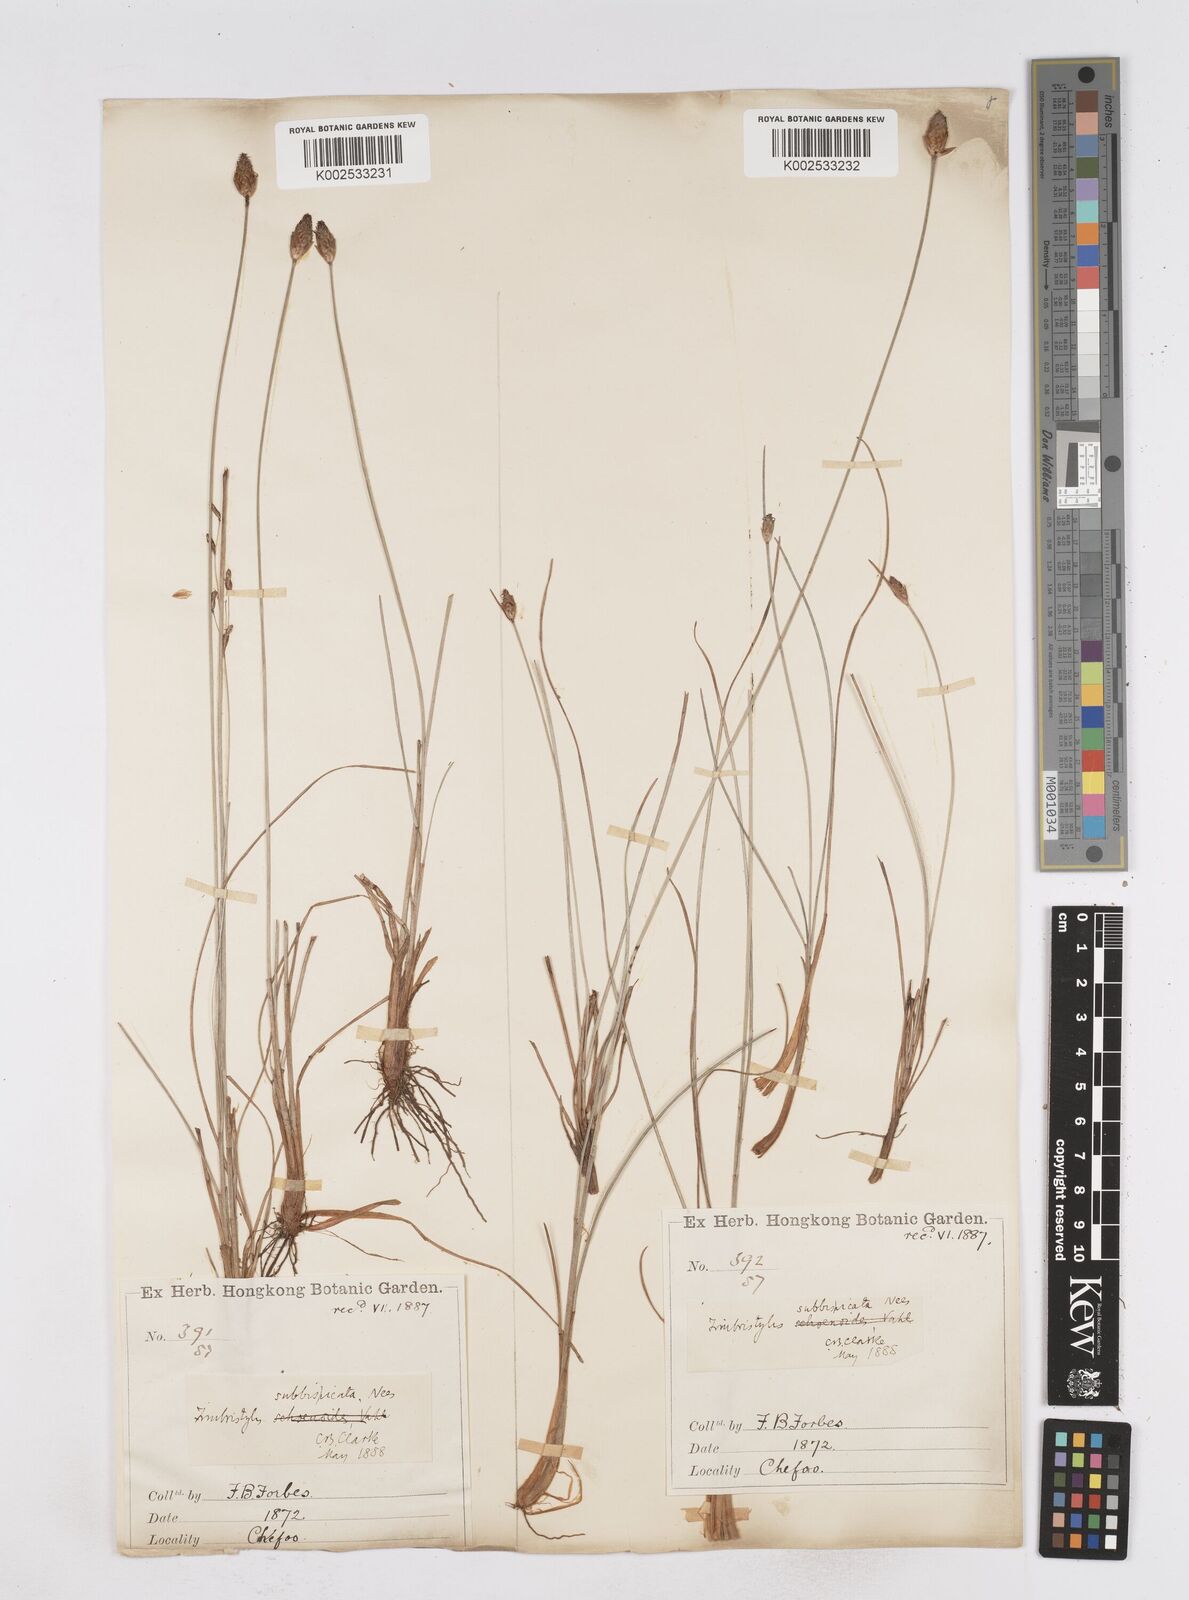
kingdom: Plantae
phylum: Tracheophyta
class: Liliopsida
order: Poales
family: Cyperaceae
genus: Fimbristylis
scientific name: Fimbristylis tristachya
